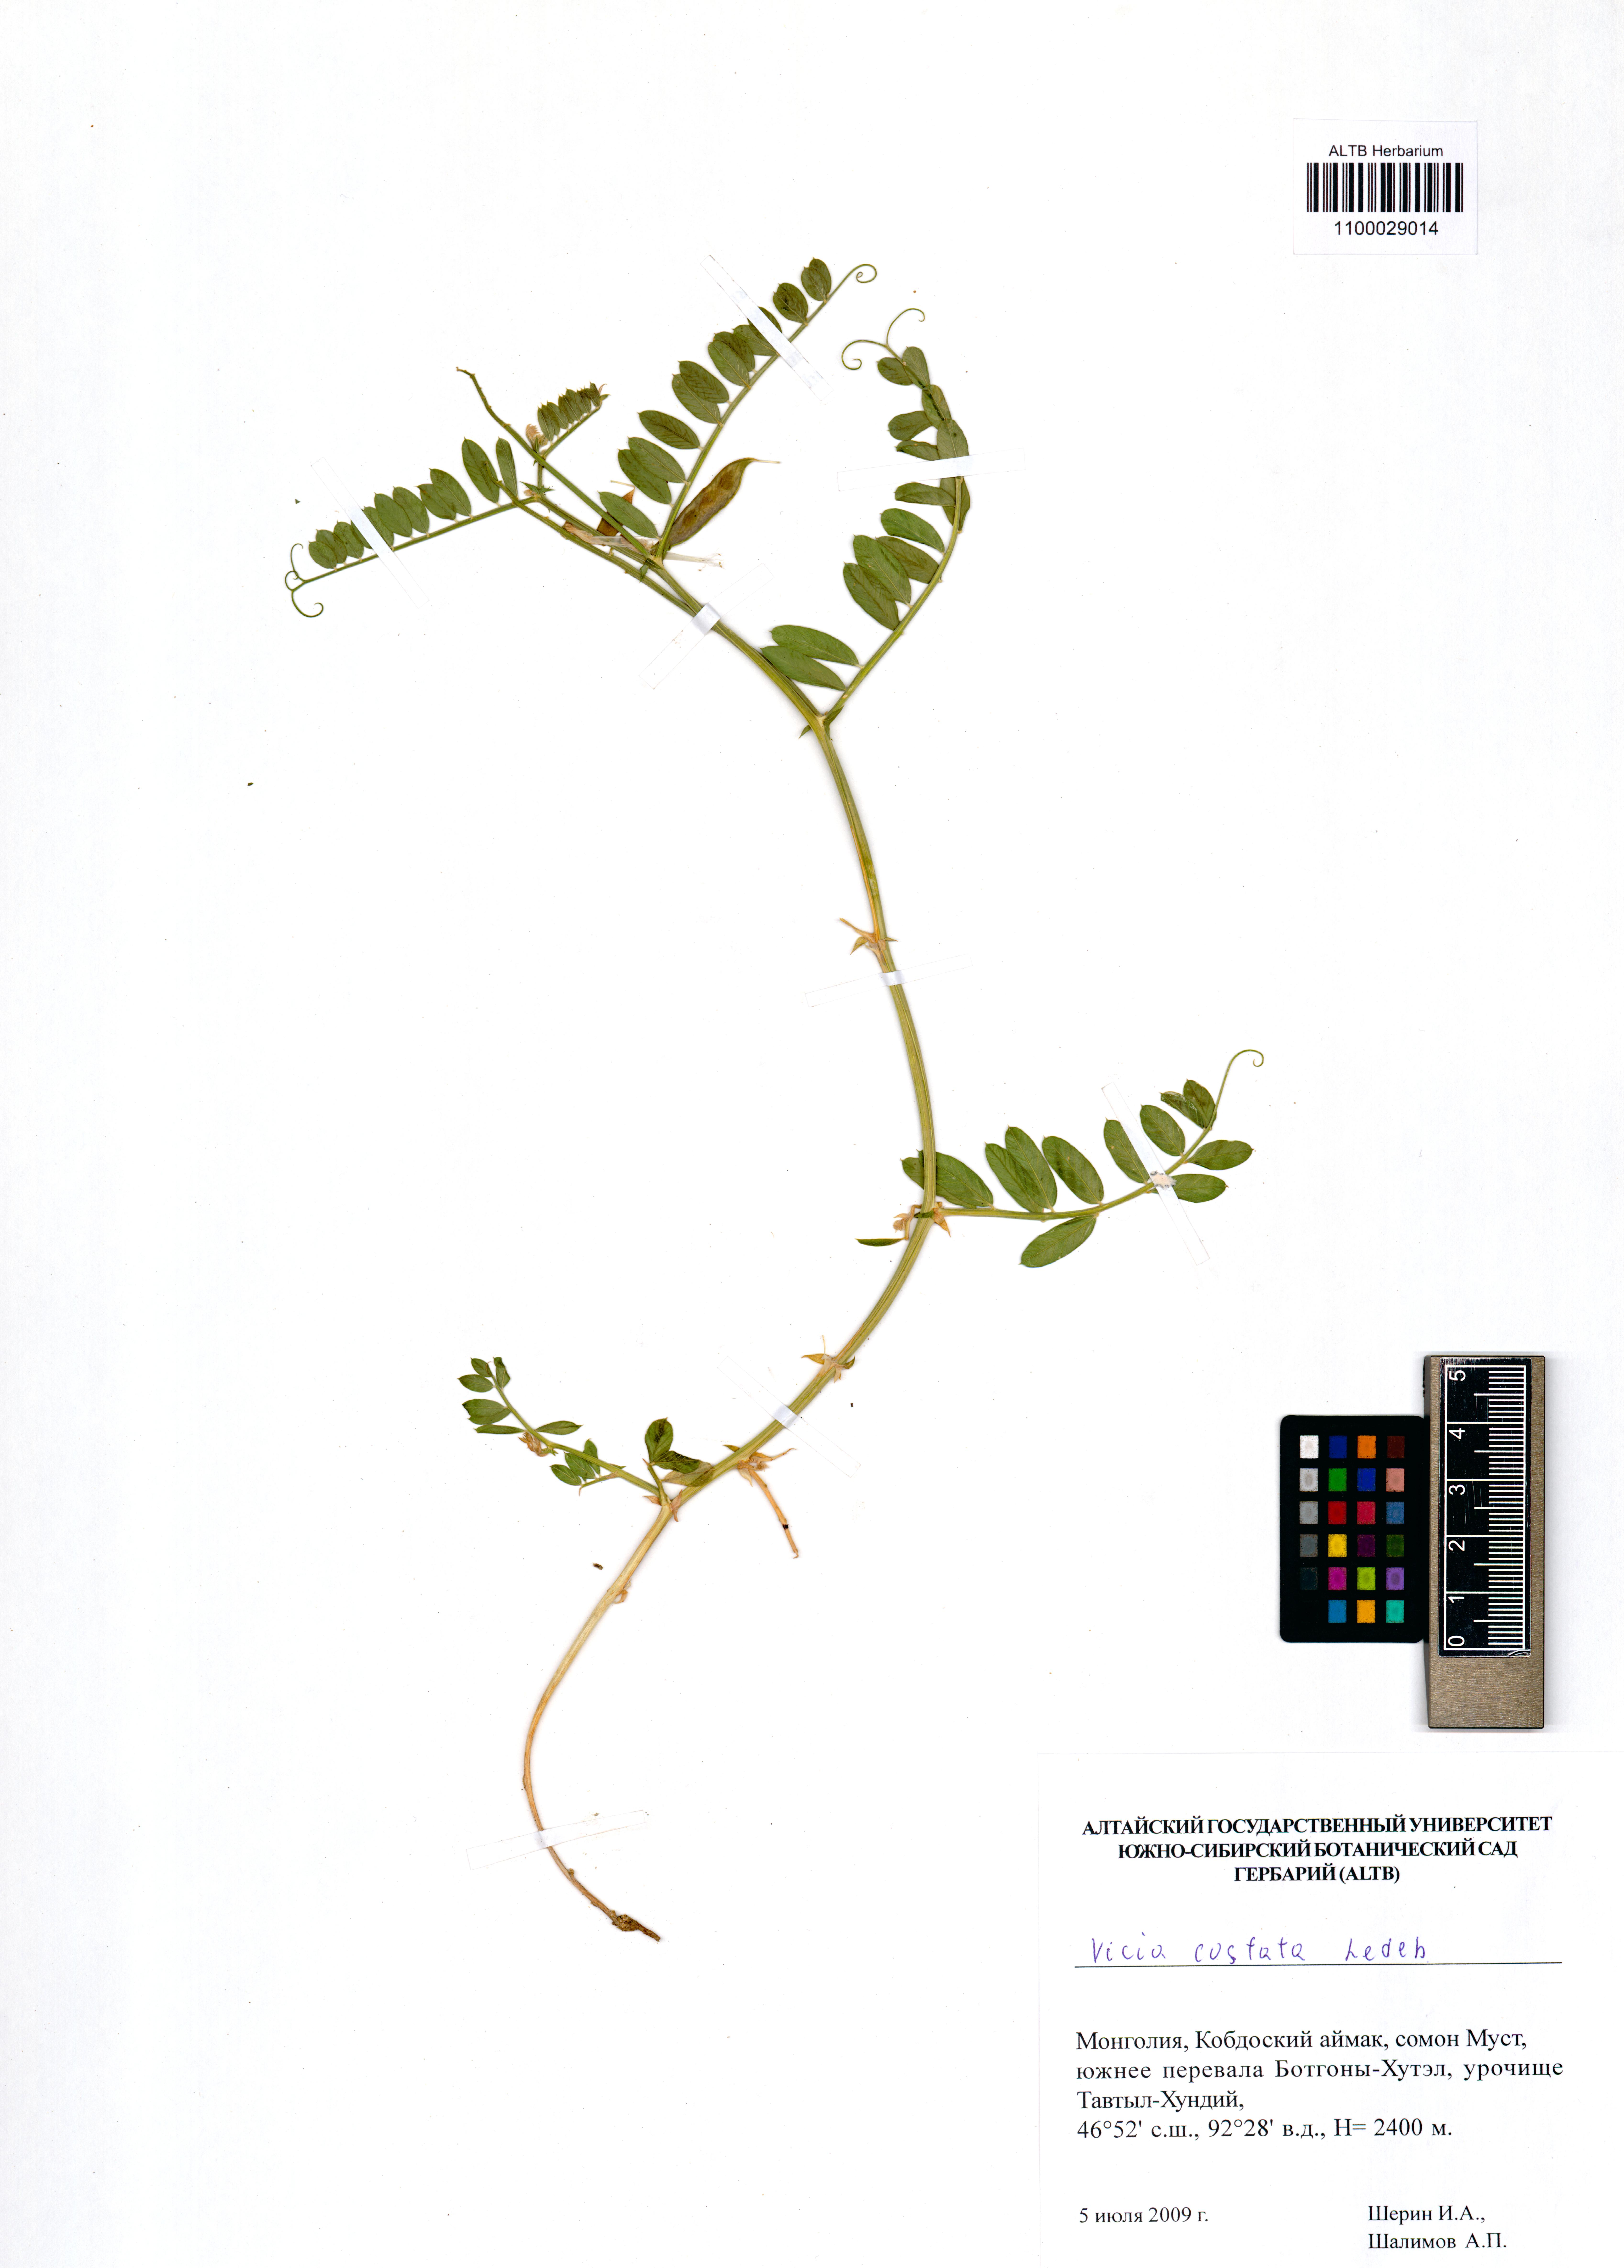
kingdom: Plantae
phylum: Tracheophyta
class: Magnoliopsida
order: Fabales
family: Fabaceae
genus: Vicia
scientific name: Vicia costata
